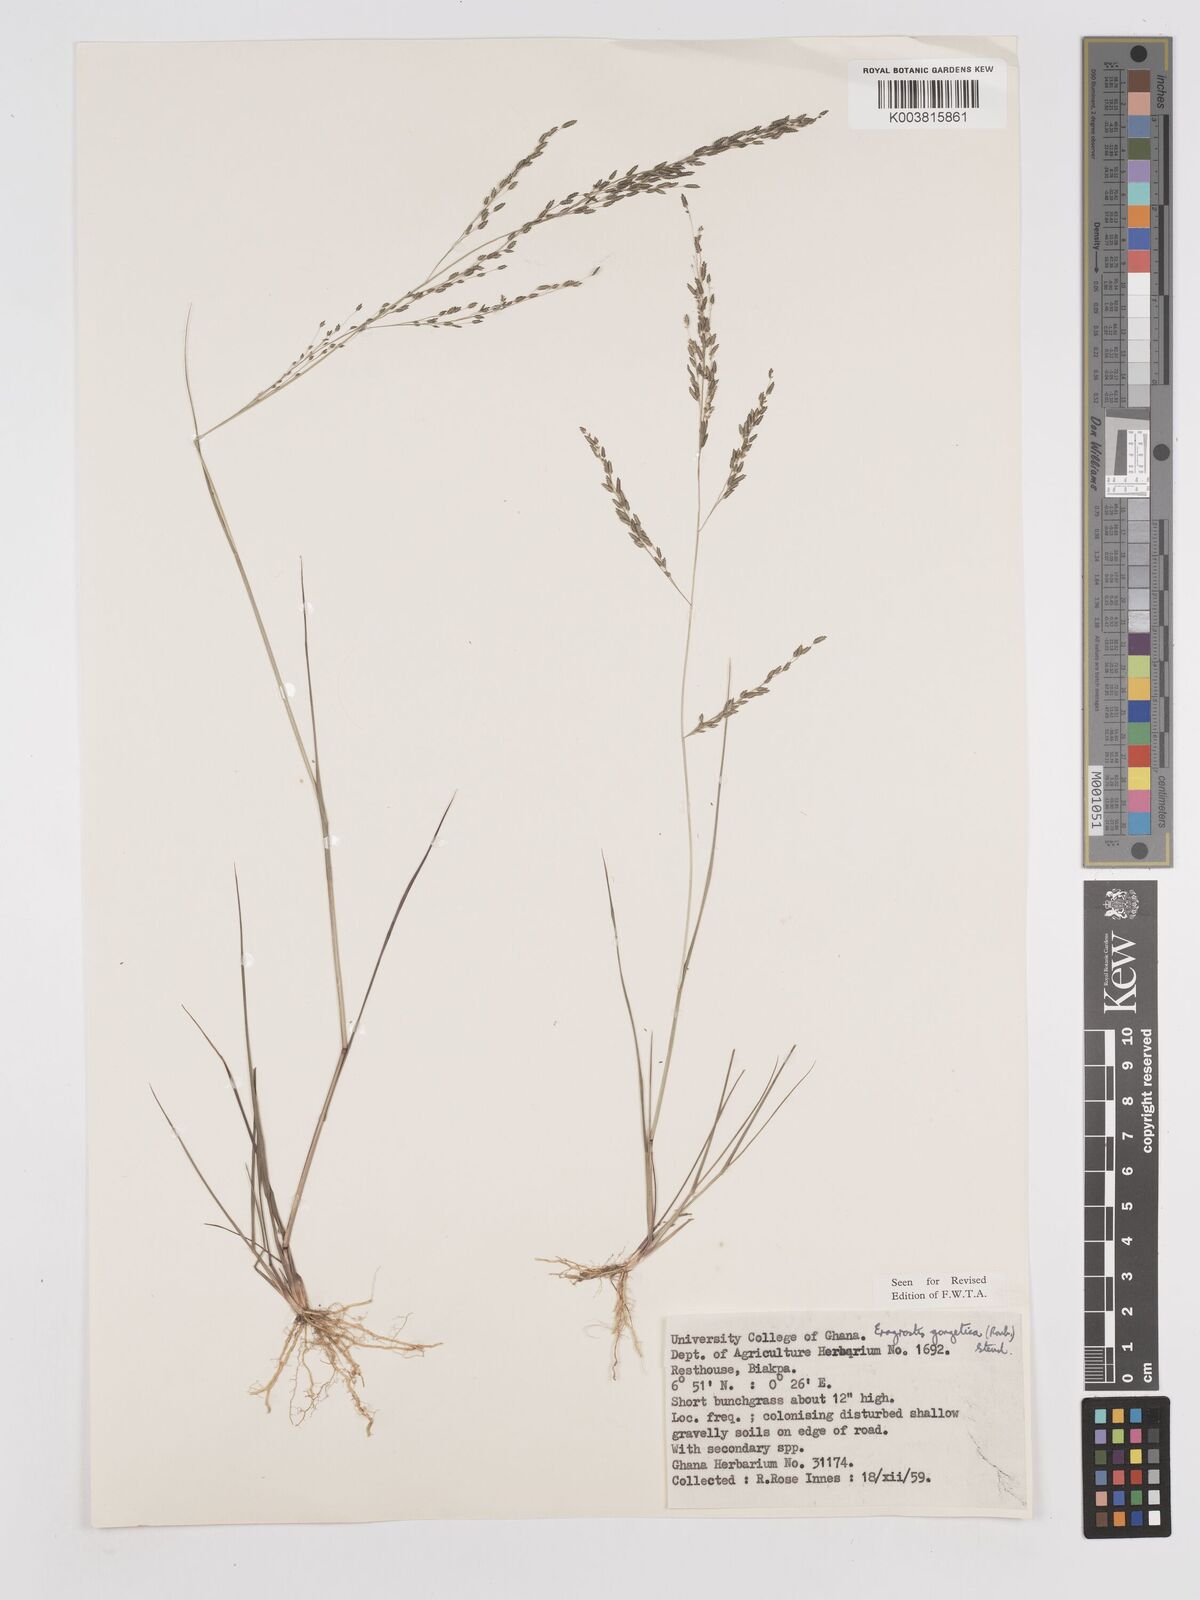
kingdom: Plantae
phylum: Tracheophyta
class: Liliopsida
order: Poales
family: Poaceae
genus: Eragrostis
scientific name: Eragrostis gangetica
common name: Slimflower lovegrass
